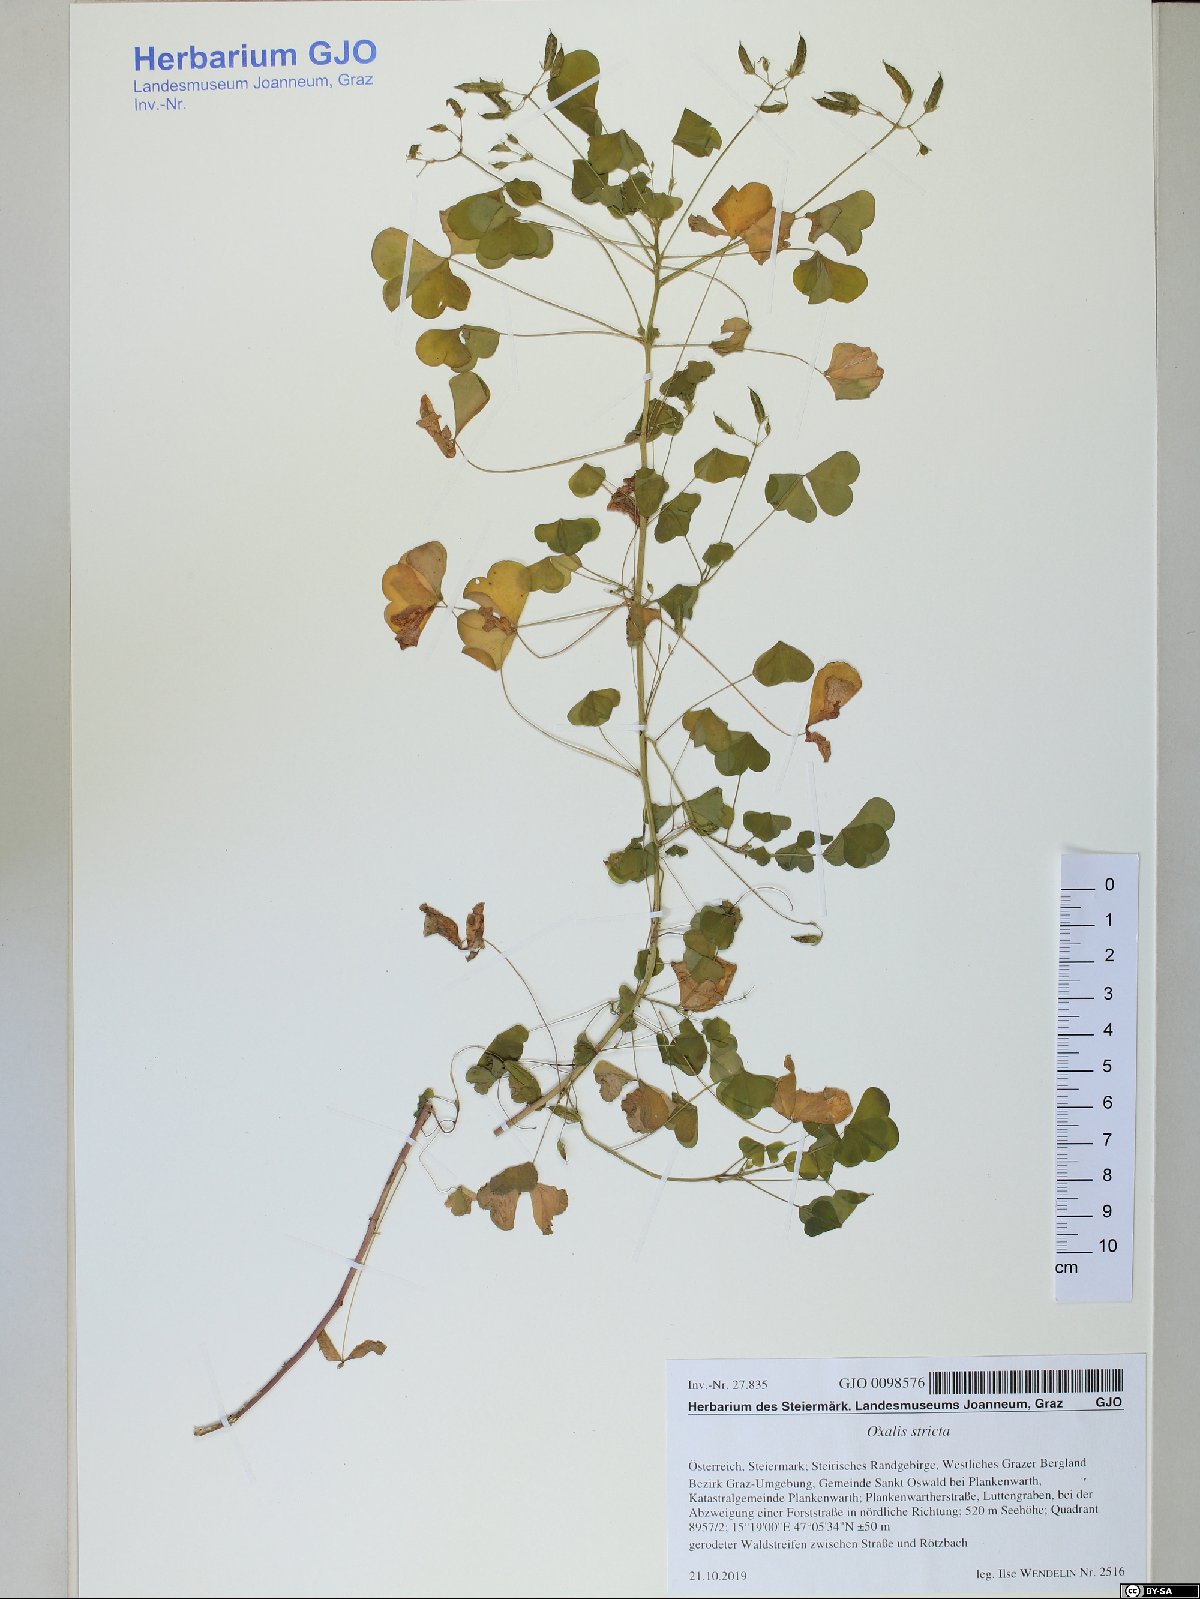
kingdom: Plantae
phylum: Tracheophyta
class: Magnoliopsida
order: Oxalidales
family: Oxalidaceae
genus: Oxalis
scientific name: Oxalis stricta
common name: Upright yellow-sorrel
